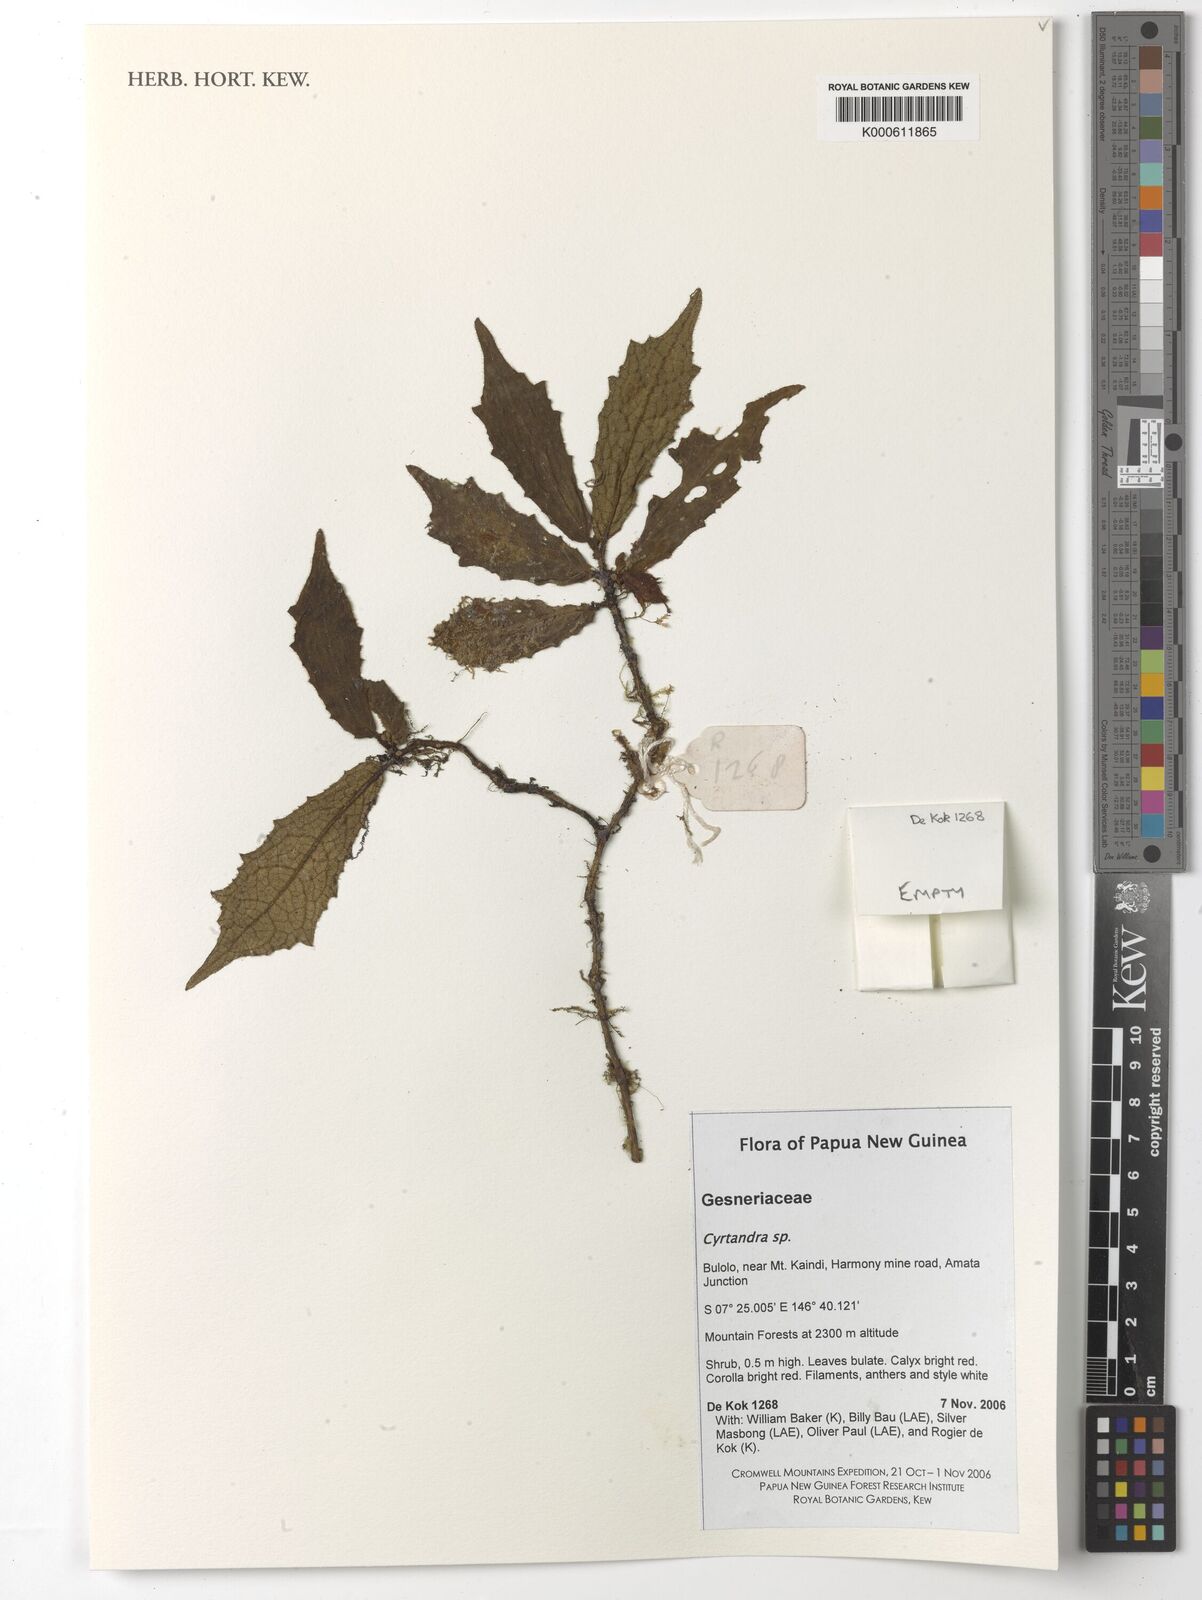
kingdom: Plantae
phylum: Tracheophyta
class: Magnoliopsida
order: Lamiales
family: Gesneriaceae
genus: Cyrtandra
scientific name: Cyrtandra
